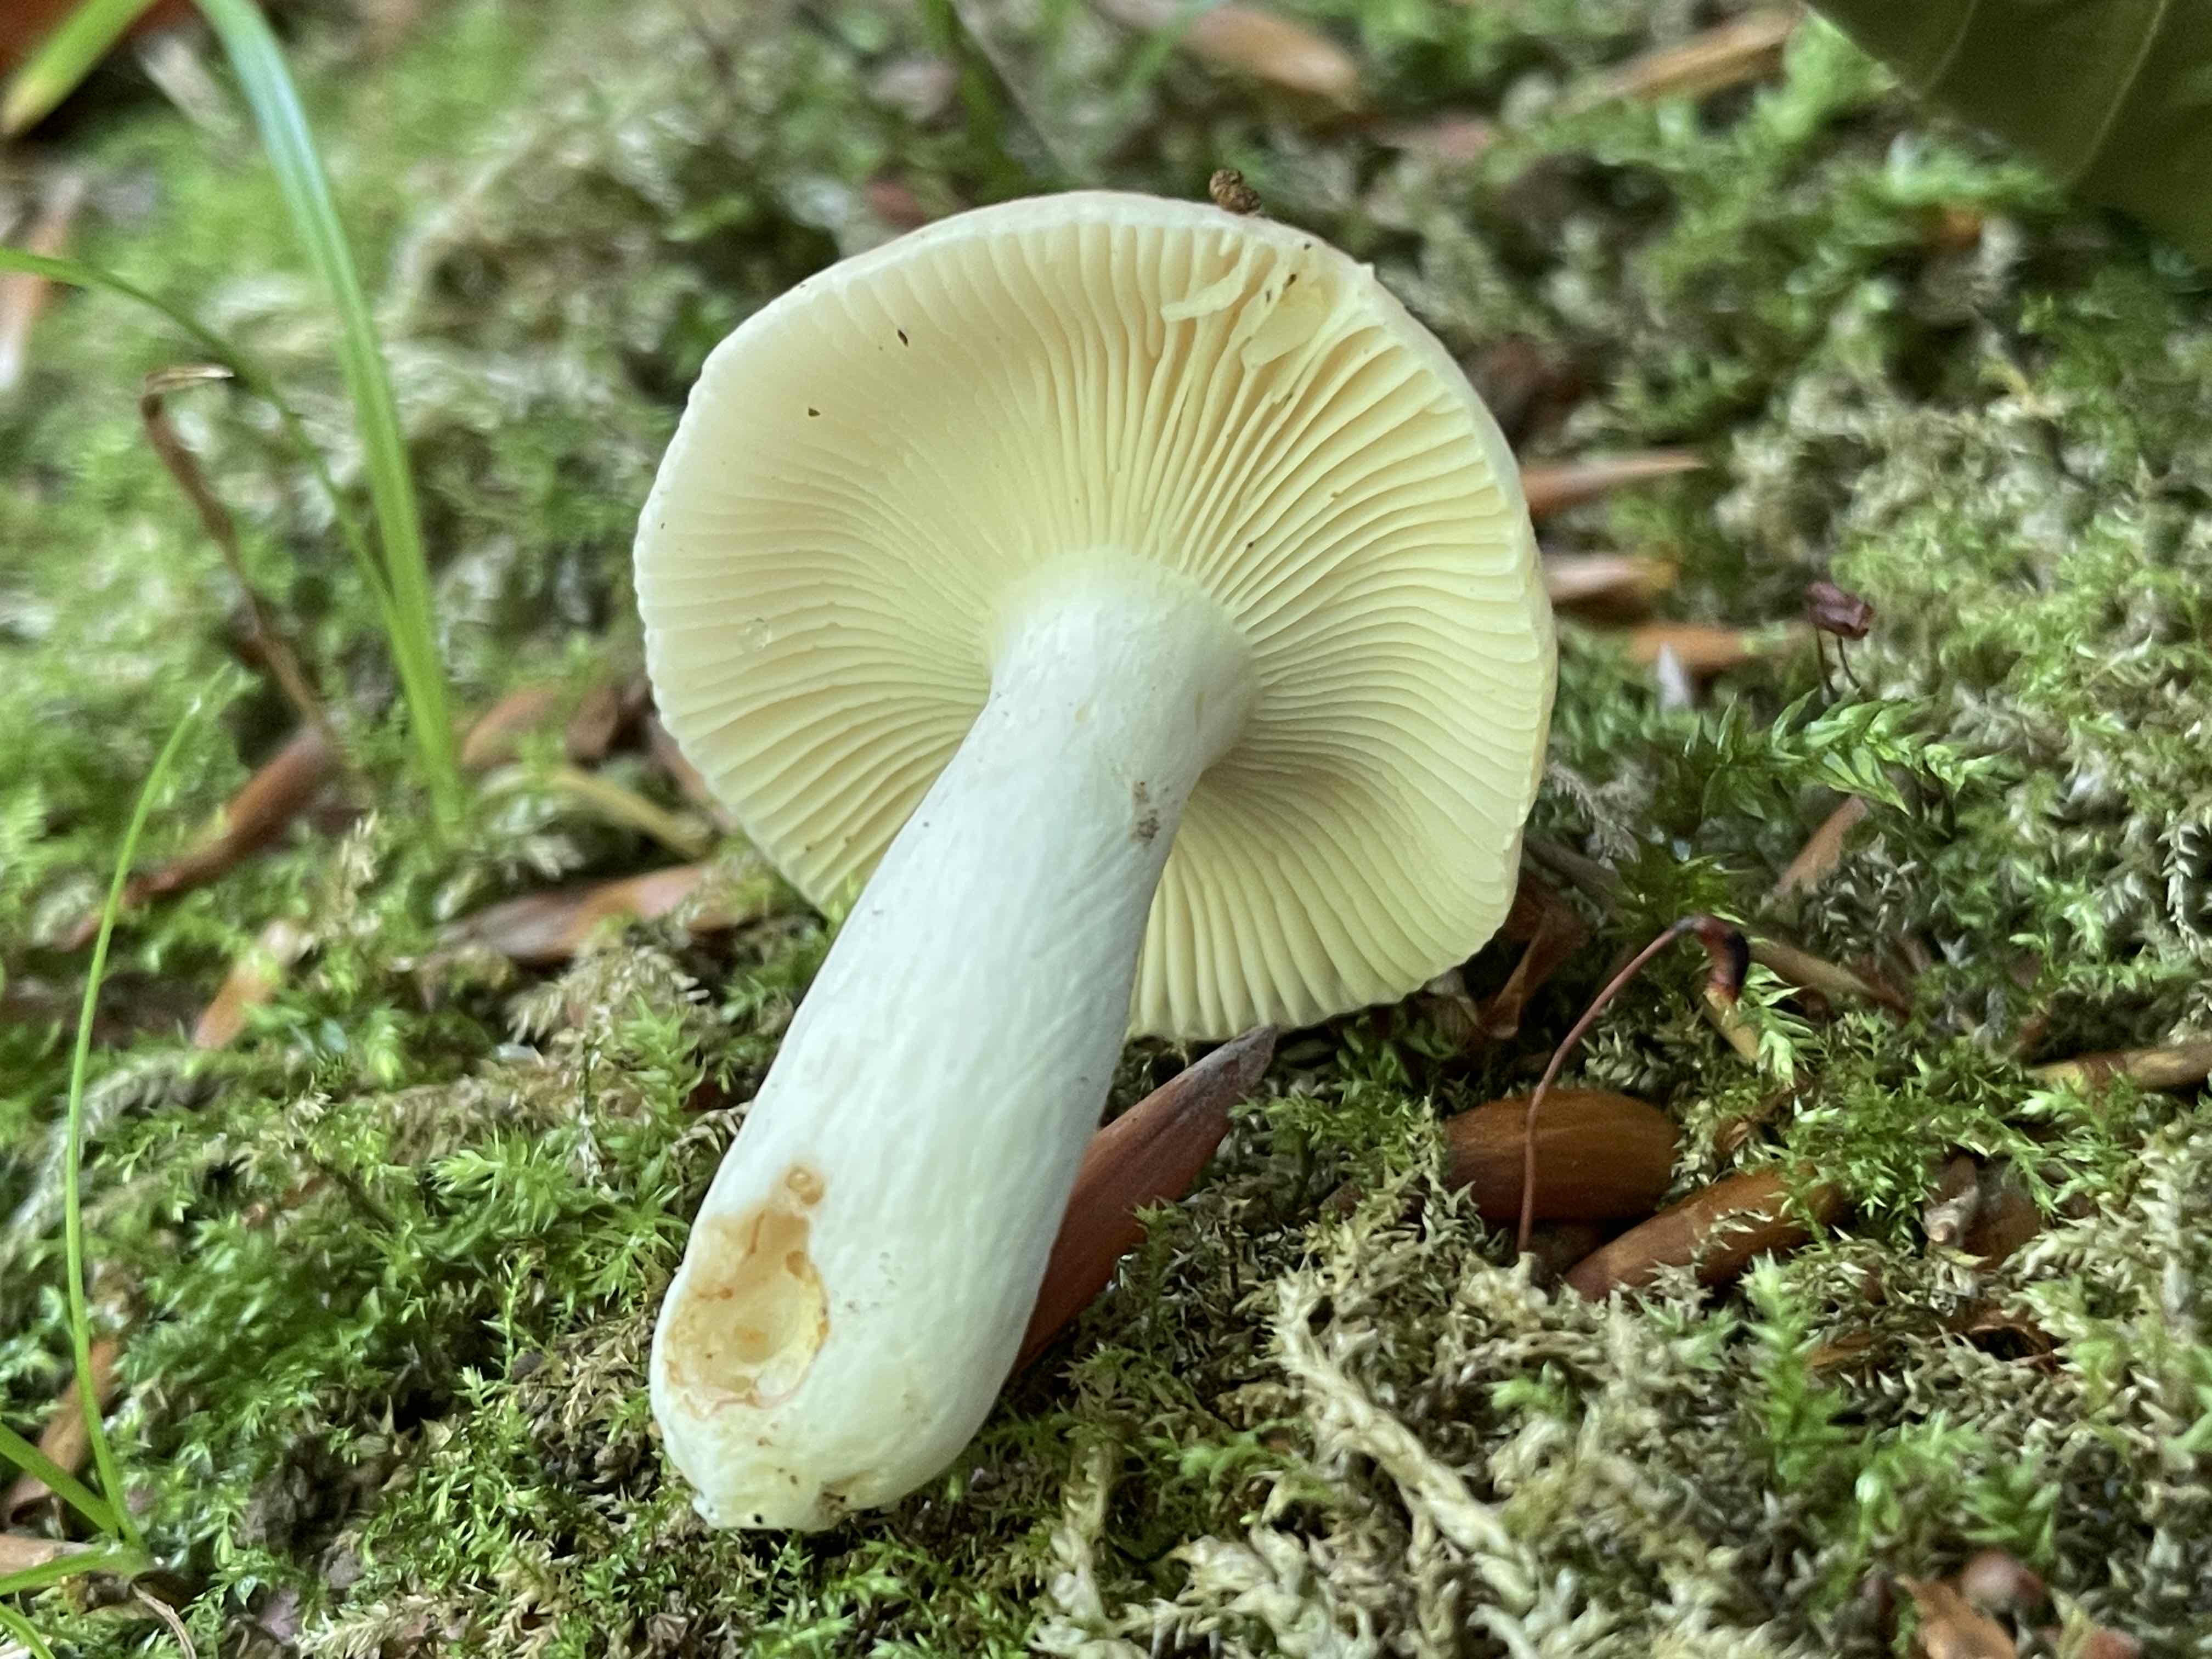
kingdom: Fungi
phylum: Basidiomycota
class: Agaricomycetes
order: Russulales
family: Russulaceae
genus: Russula
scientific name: Russula luteotacta
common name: gulplettet gift-skørhat
